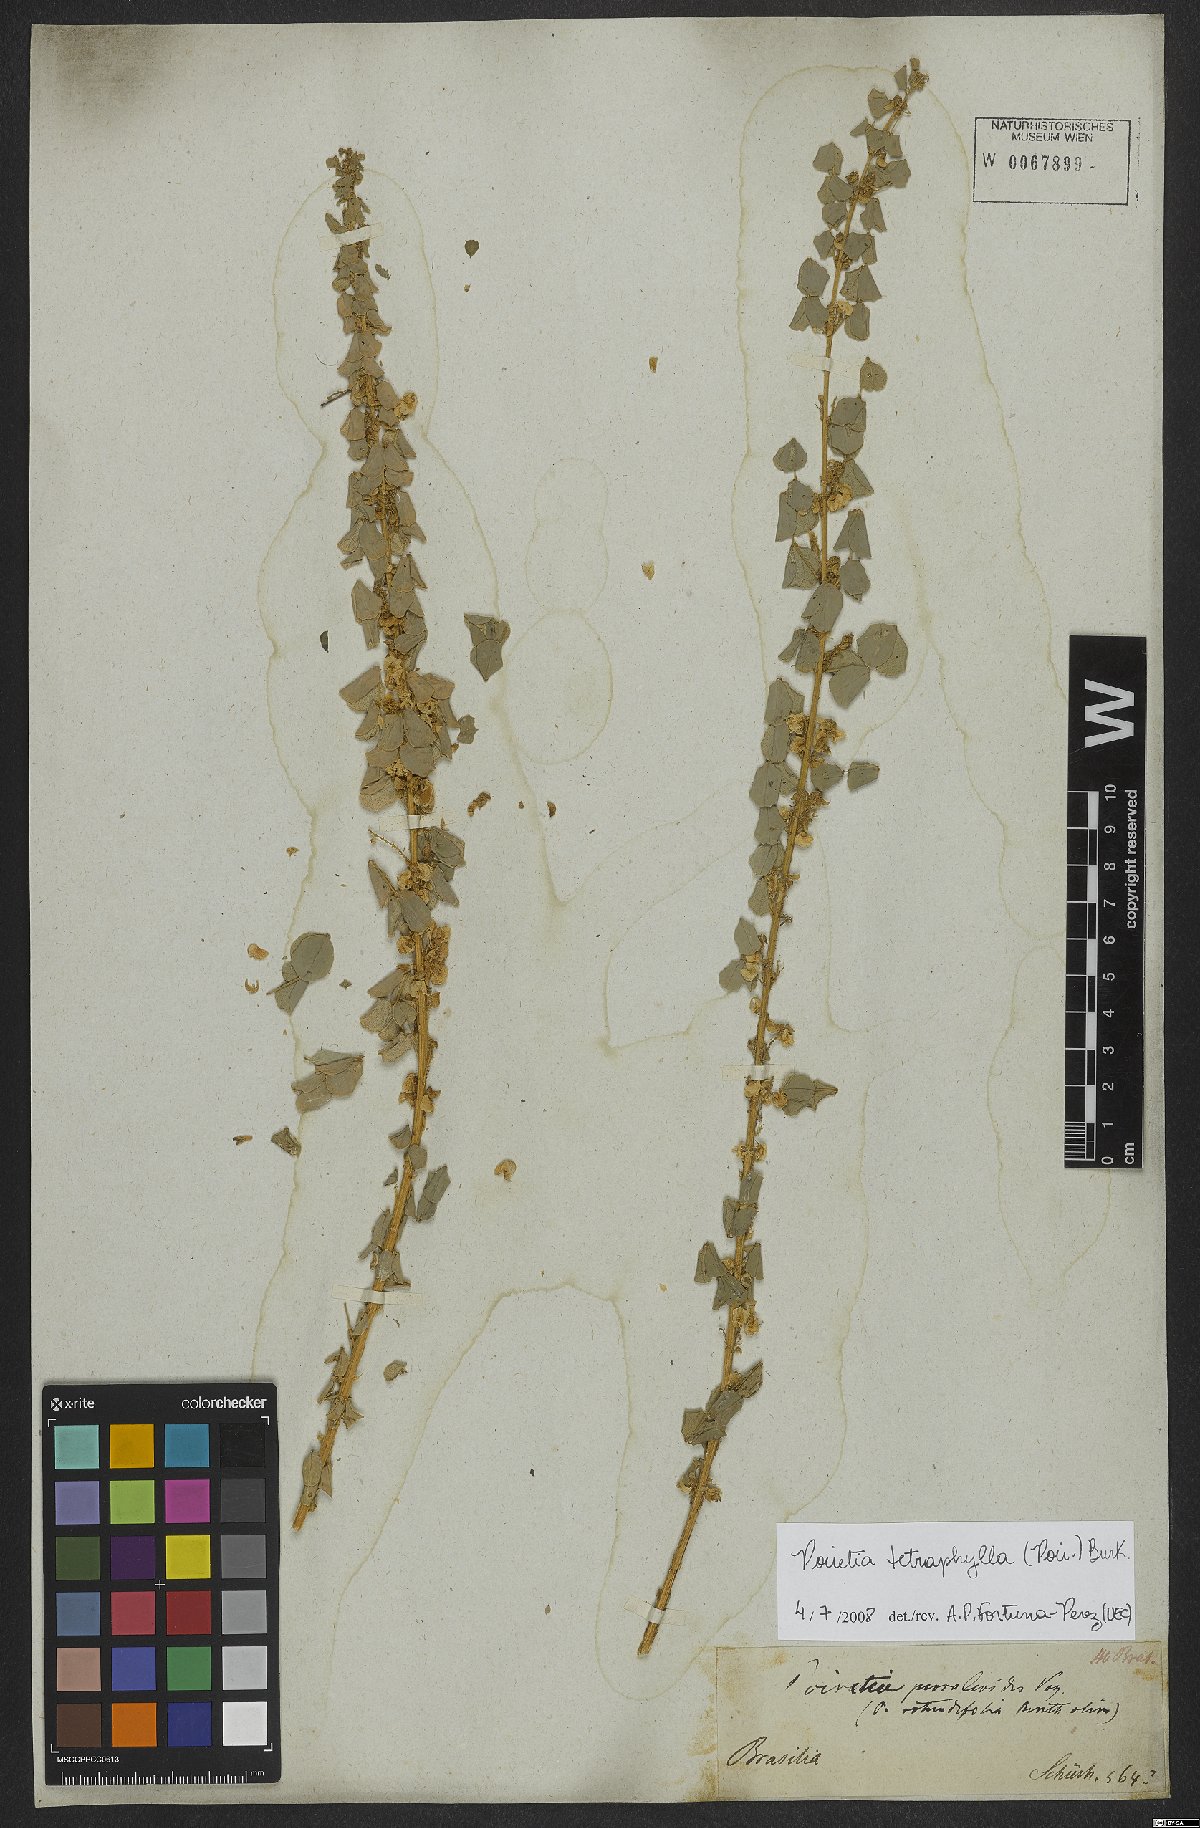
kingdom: Plantae
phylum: Tracheophyta
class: Magnoliopsida
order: Fabales
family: Fabaceae
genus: Poiretia
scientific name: Poiretia tetraphylla
